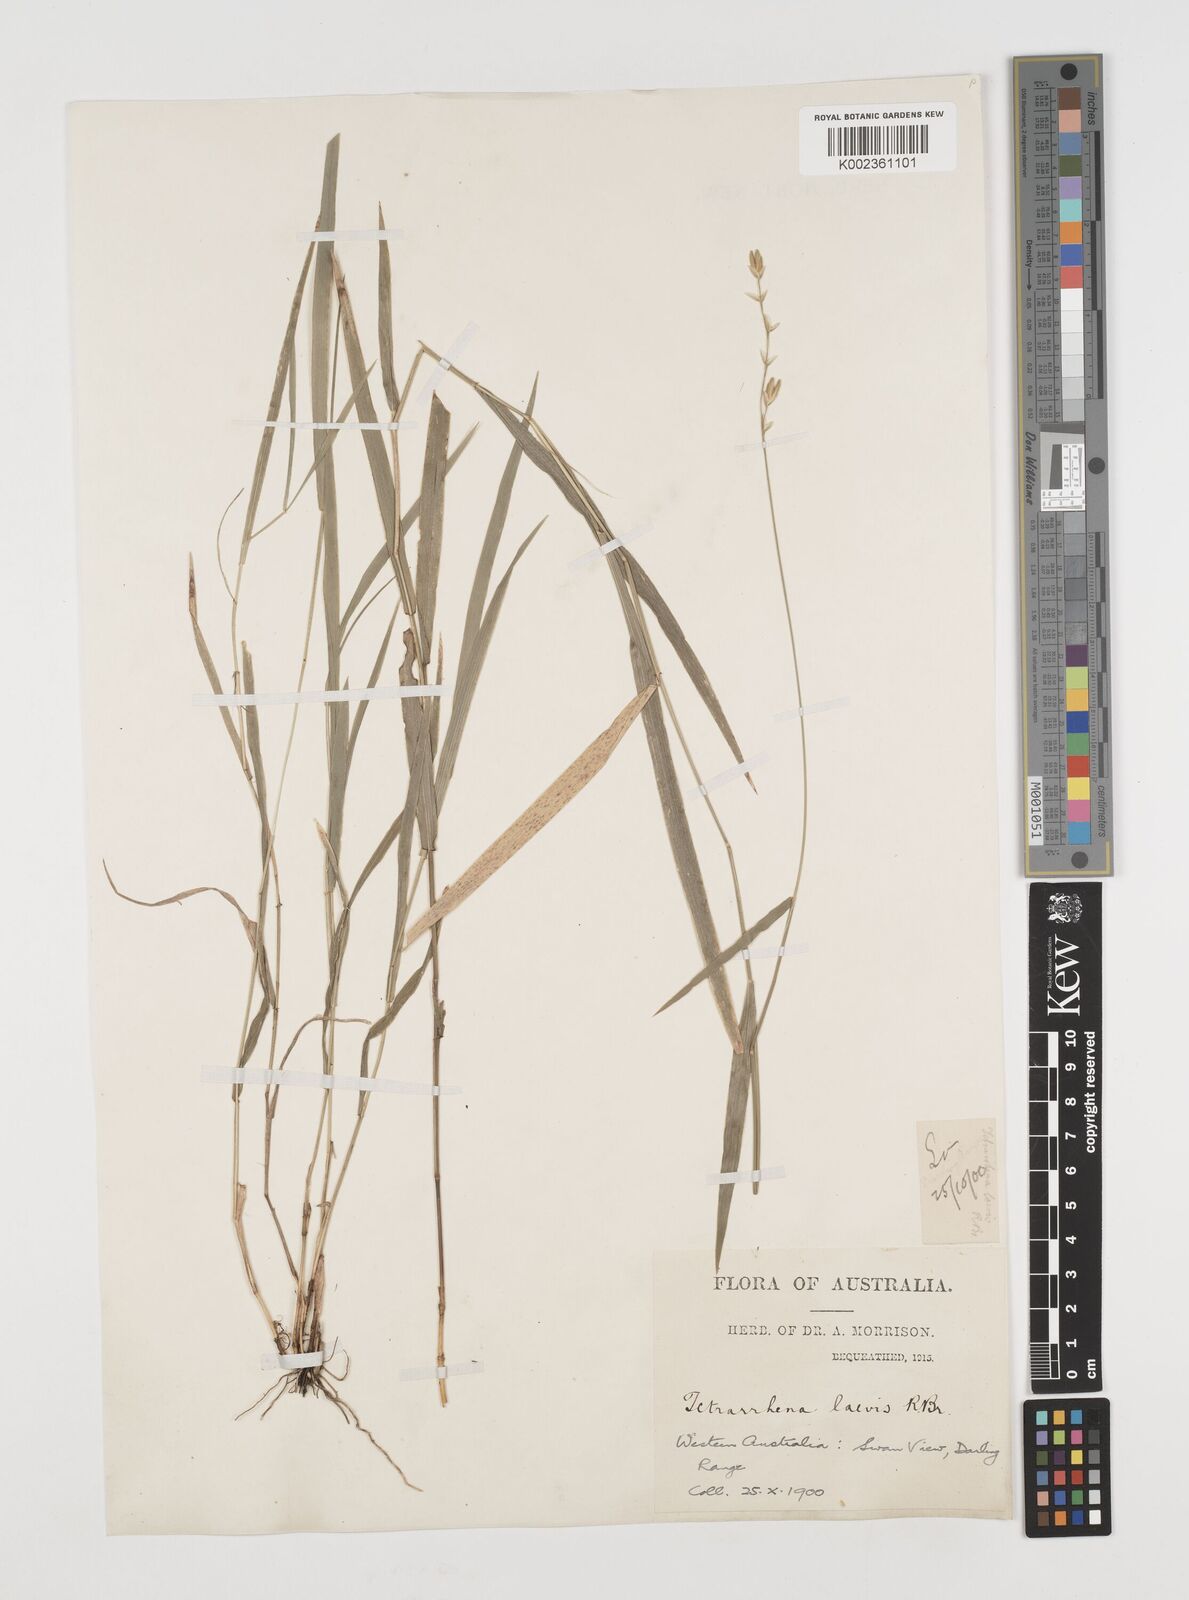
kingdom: Plantae
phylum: Tracheophyta
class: Liliopsida
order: Poales
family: Poaceae
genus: Tetrarrhena
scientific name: Tetrarrhena laevis
